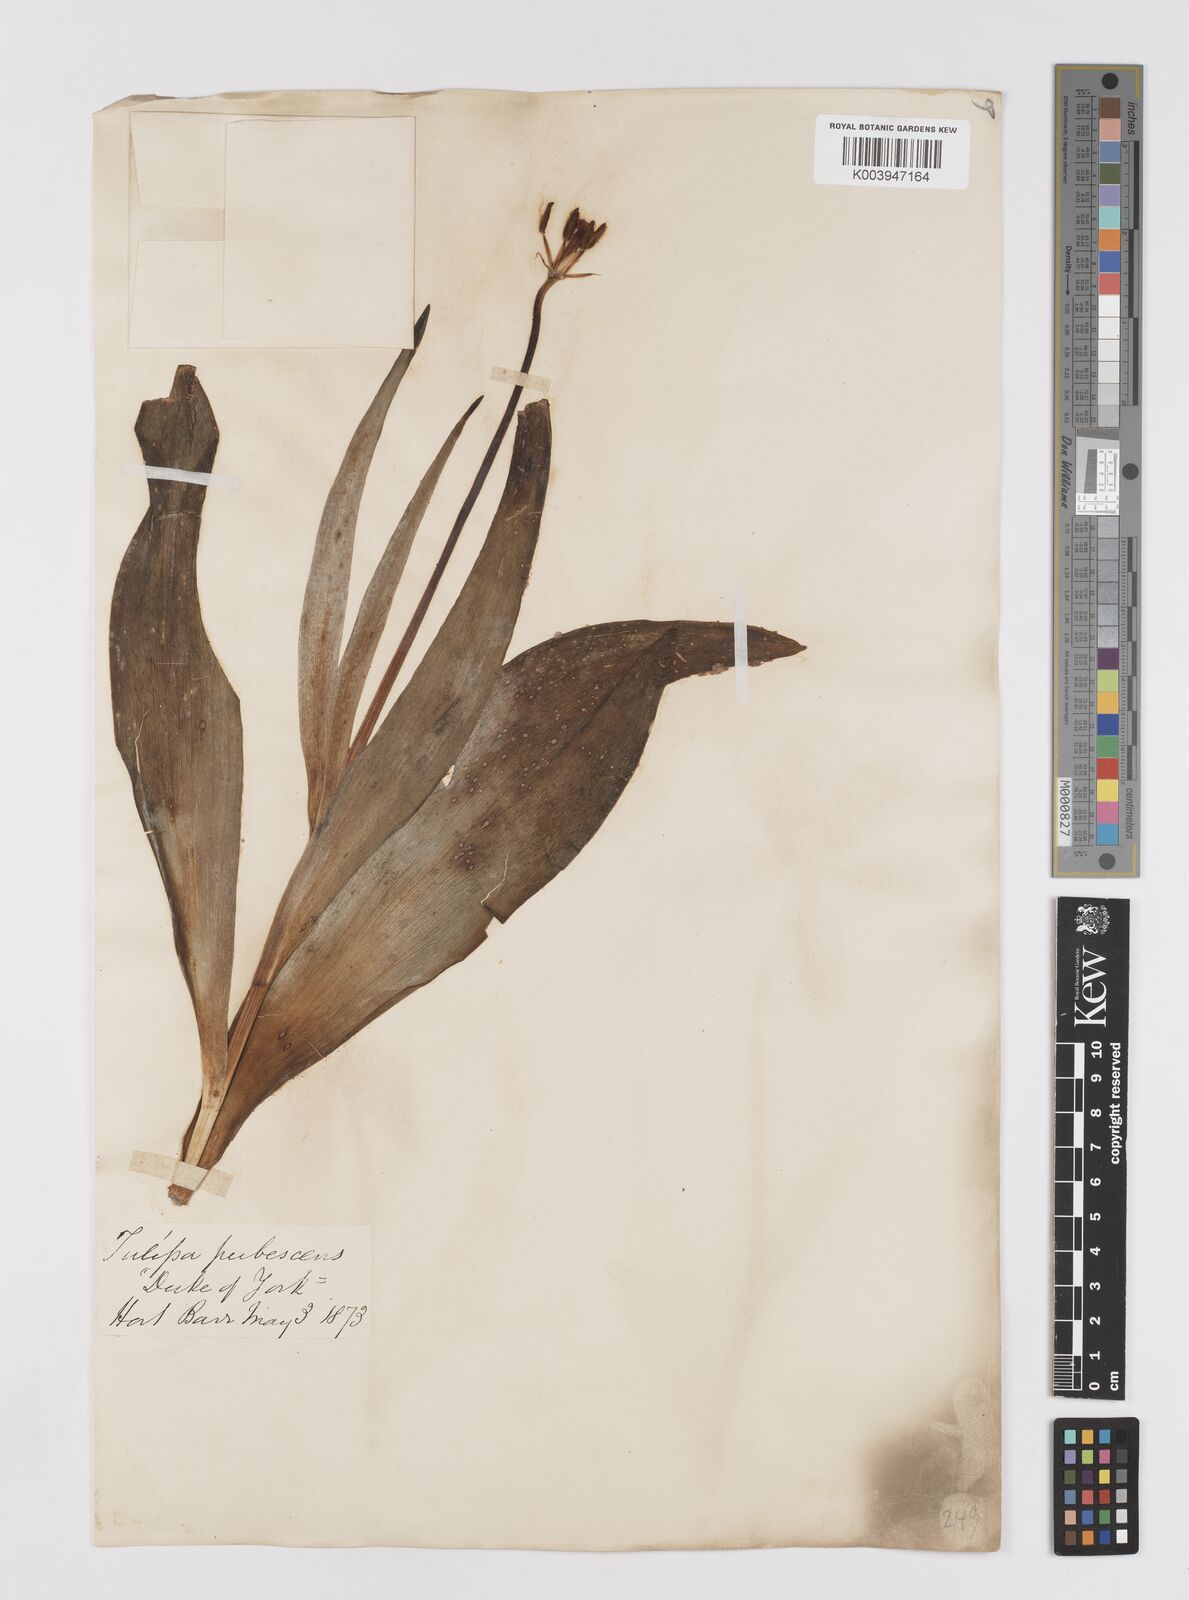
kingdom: Plantae
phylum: Tracheophyta
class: Liliopsida
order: Liliales
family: Liliaceae
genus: Tulipa
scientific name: Tulipa gesneriana
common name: Garden tulip
